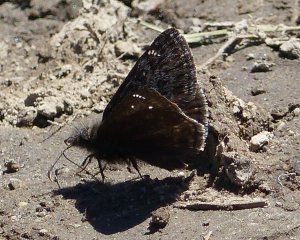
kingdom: Animalia
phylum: Arthropoda
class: Insecta
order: Lepidoptera
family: Hesperiidae
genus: Gesta
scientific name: Gesta
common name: Persius Duskywing
